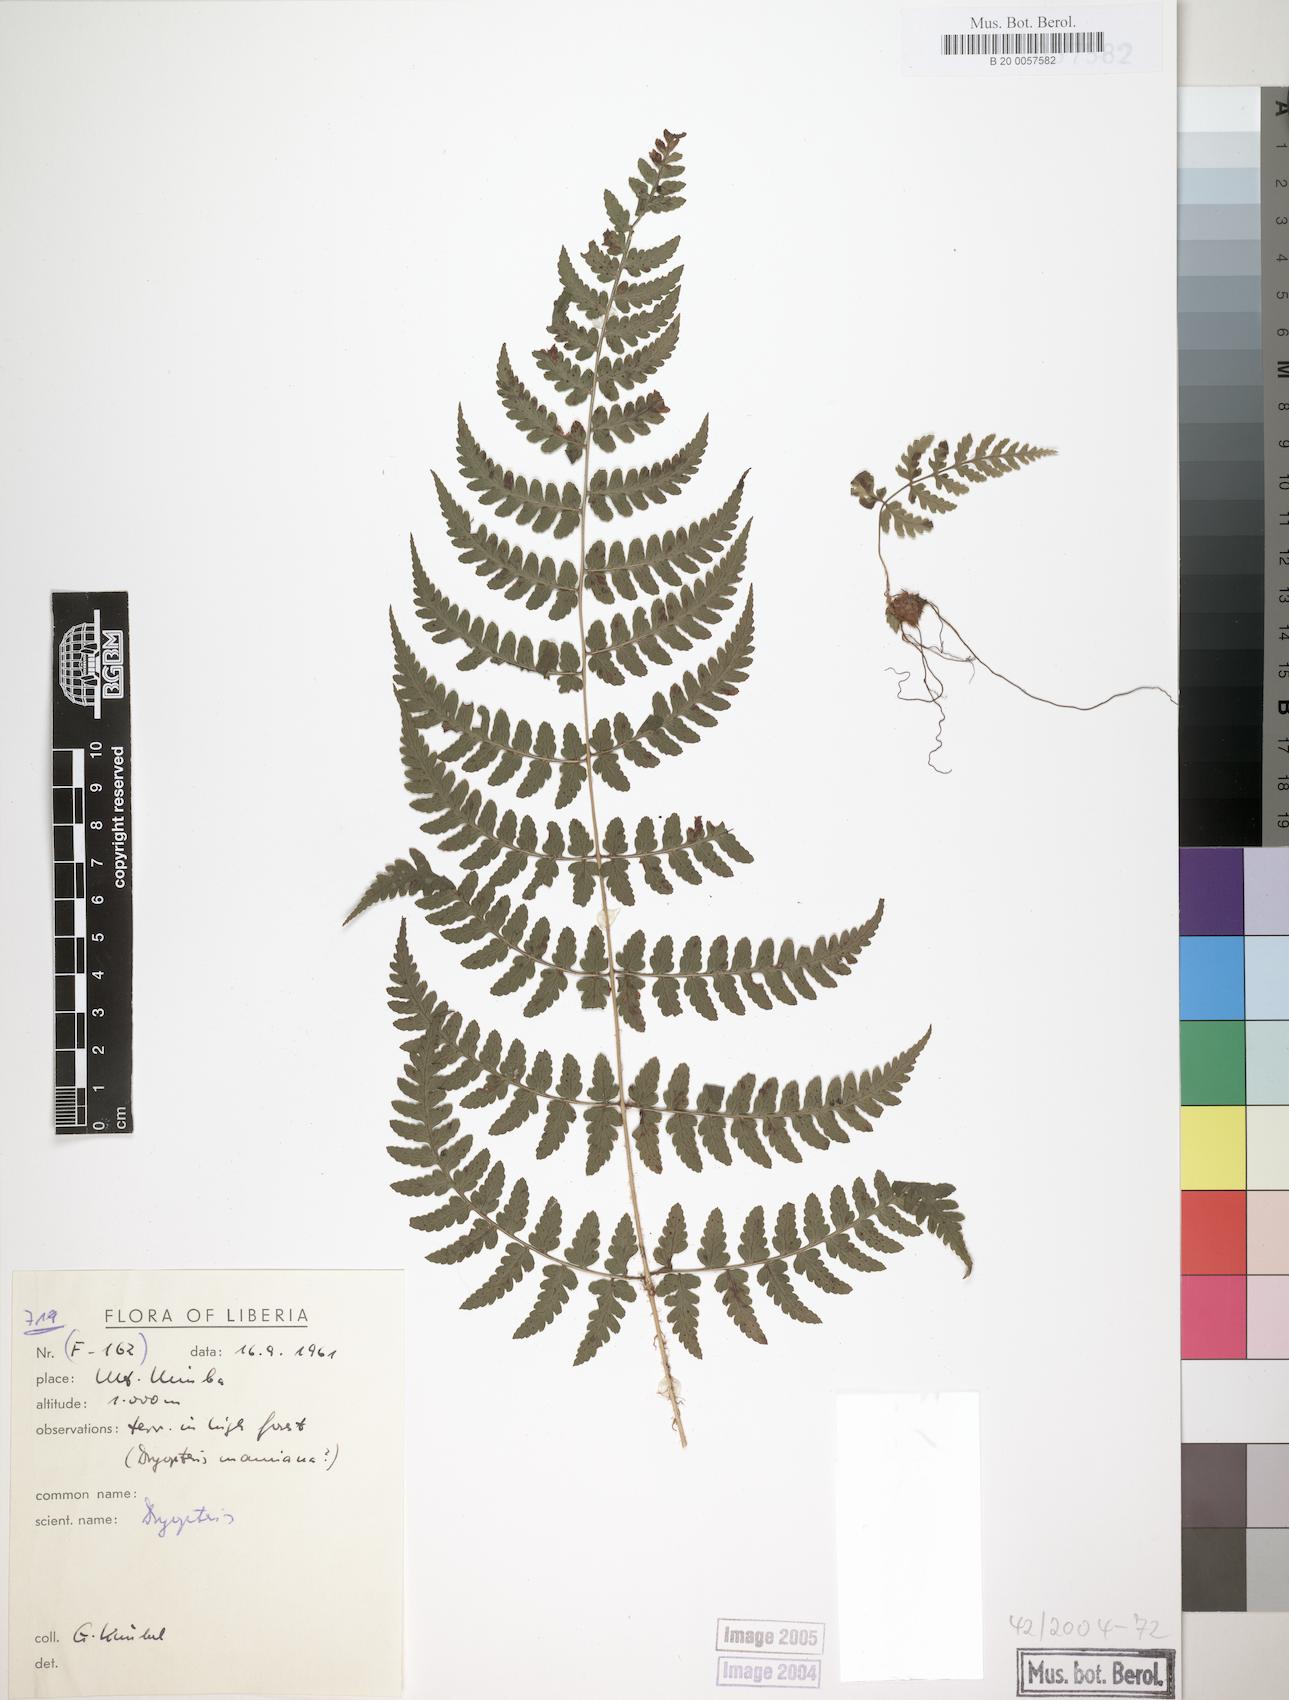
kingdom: Plantae
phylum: Tracheophyta
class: Polypodiopsida
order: Polypodiales
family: Dryopteridaceae
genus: Dryopteris
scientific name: Dryopteris manniana
